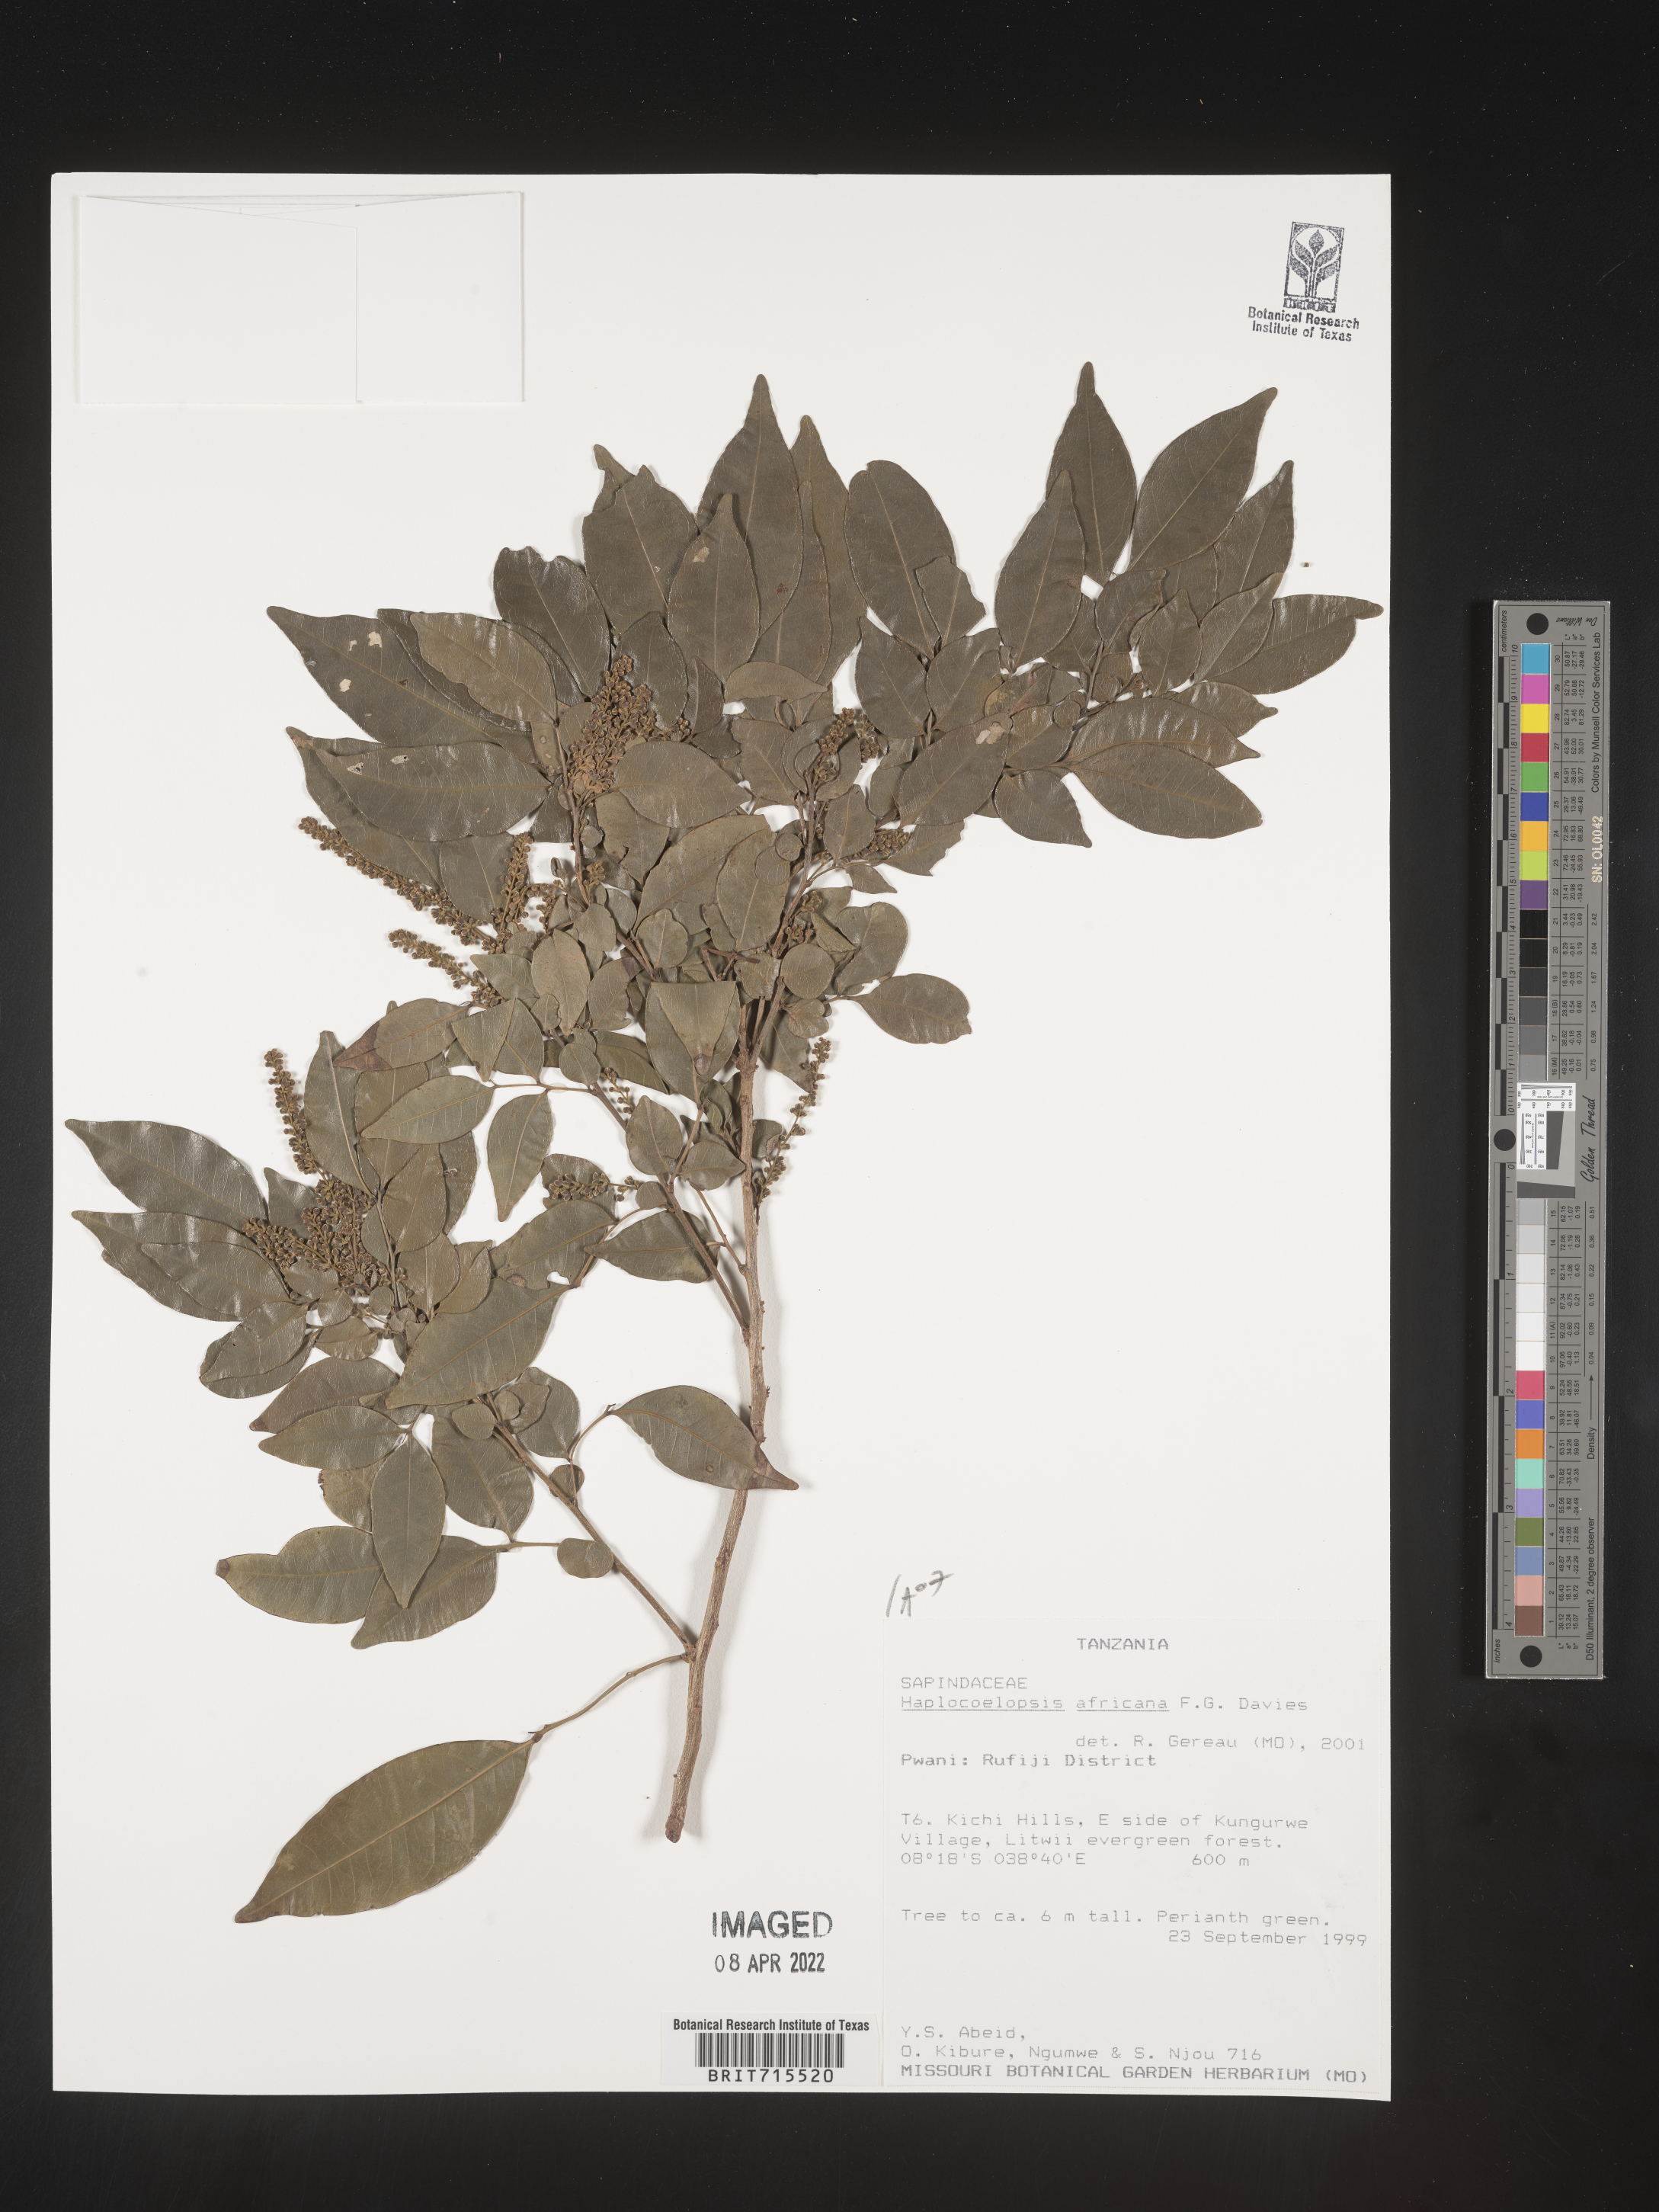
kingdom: Plantae
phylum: Tracheophyta
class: Magnoliopsida
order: Sapindales
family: Sapindaceae
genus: Haplocoelopsis
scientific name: Haplocoelopsis
